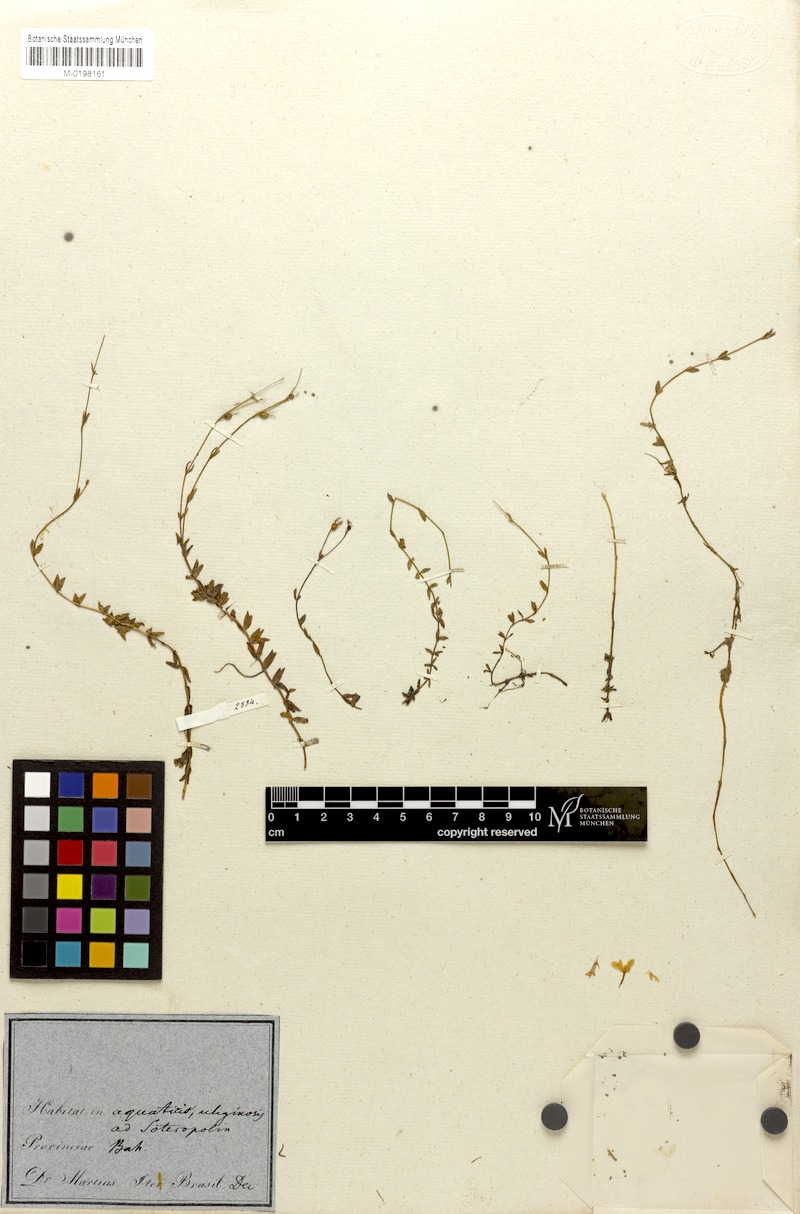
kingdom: Plantae
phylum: Tracheophyta
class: Magnoliopsida
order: Gentianales
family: Rubiaceae
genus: Limnosipanea
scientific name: Limnosipanea erythraeoides
